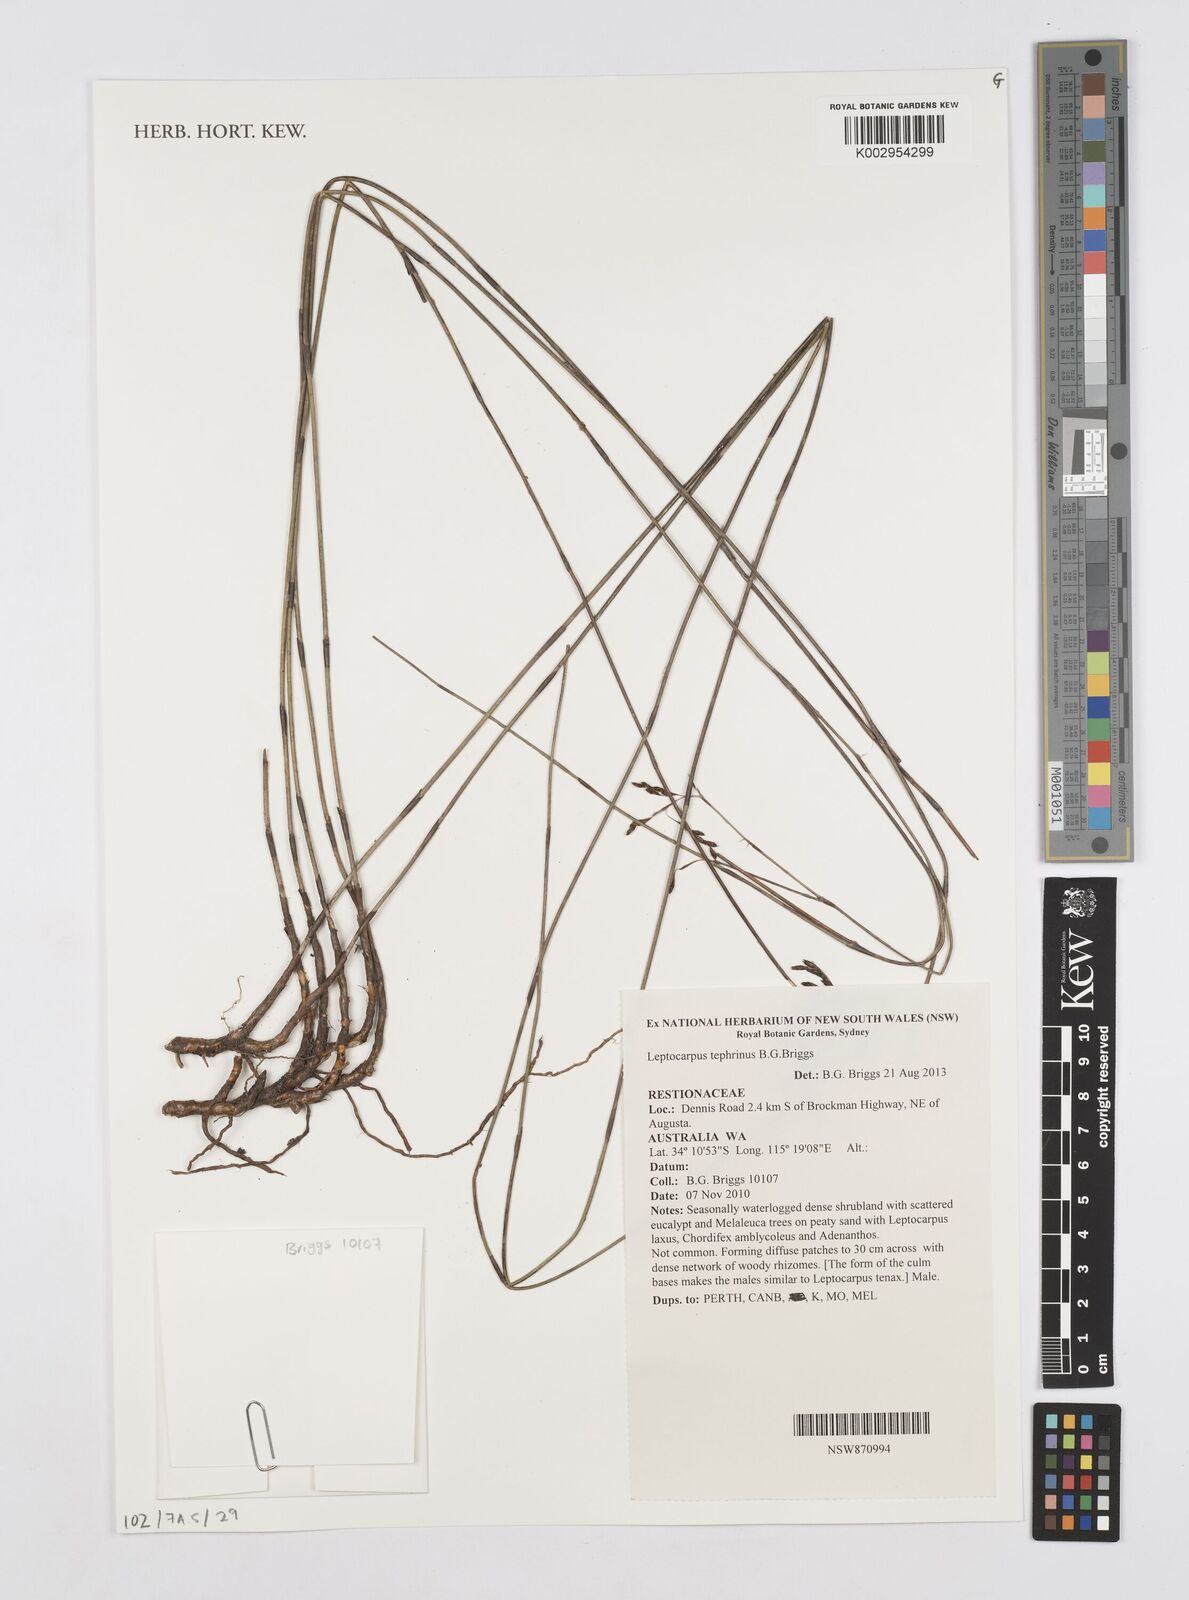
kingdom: Plantae
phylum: Tracheophyta
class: Liliopsida
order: Poales
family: Restionaceae
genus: Leptocarpus
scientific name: Leptocarpus tephrinus
